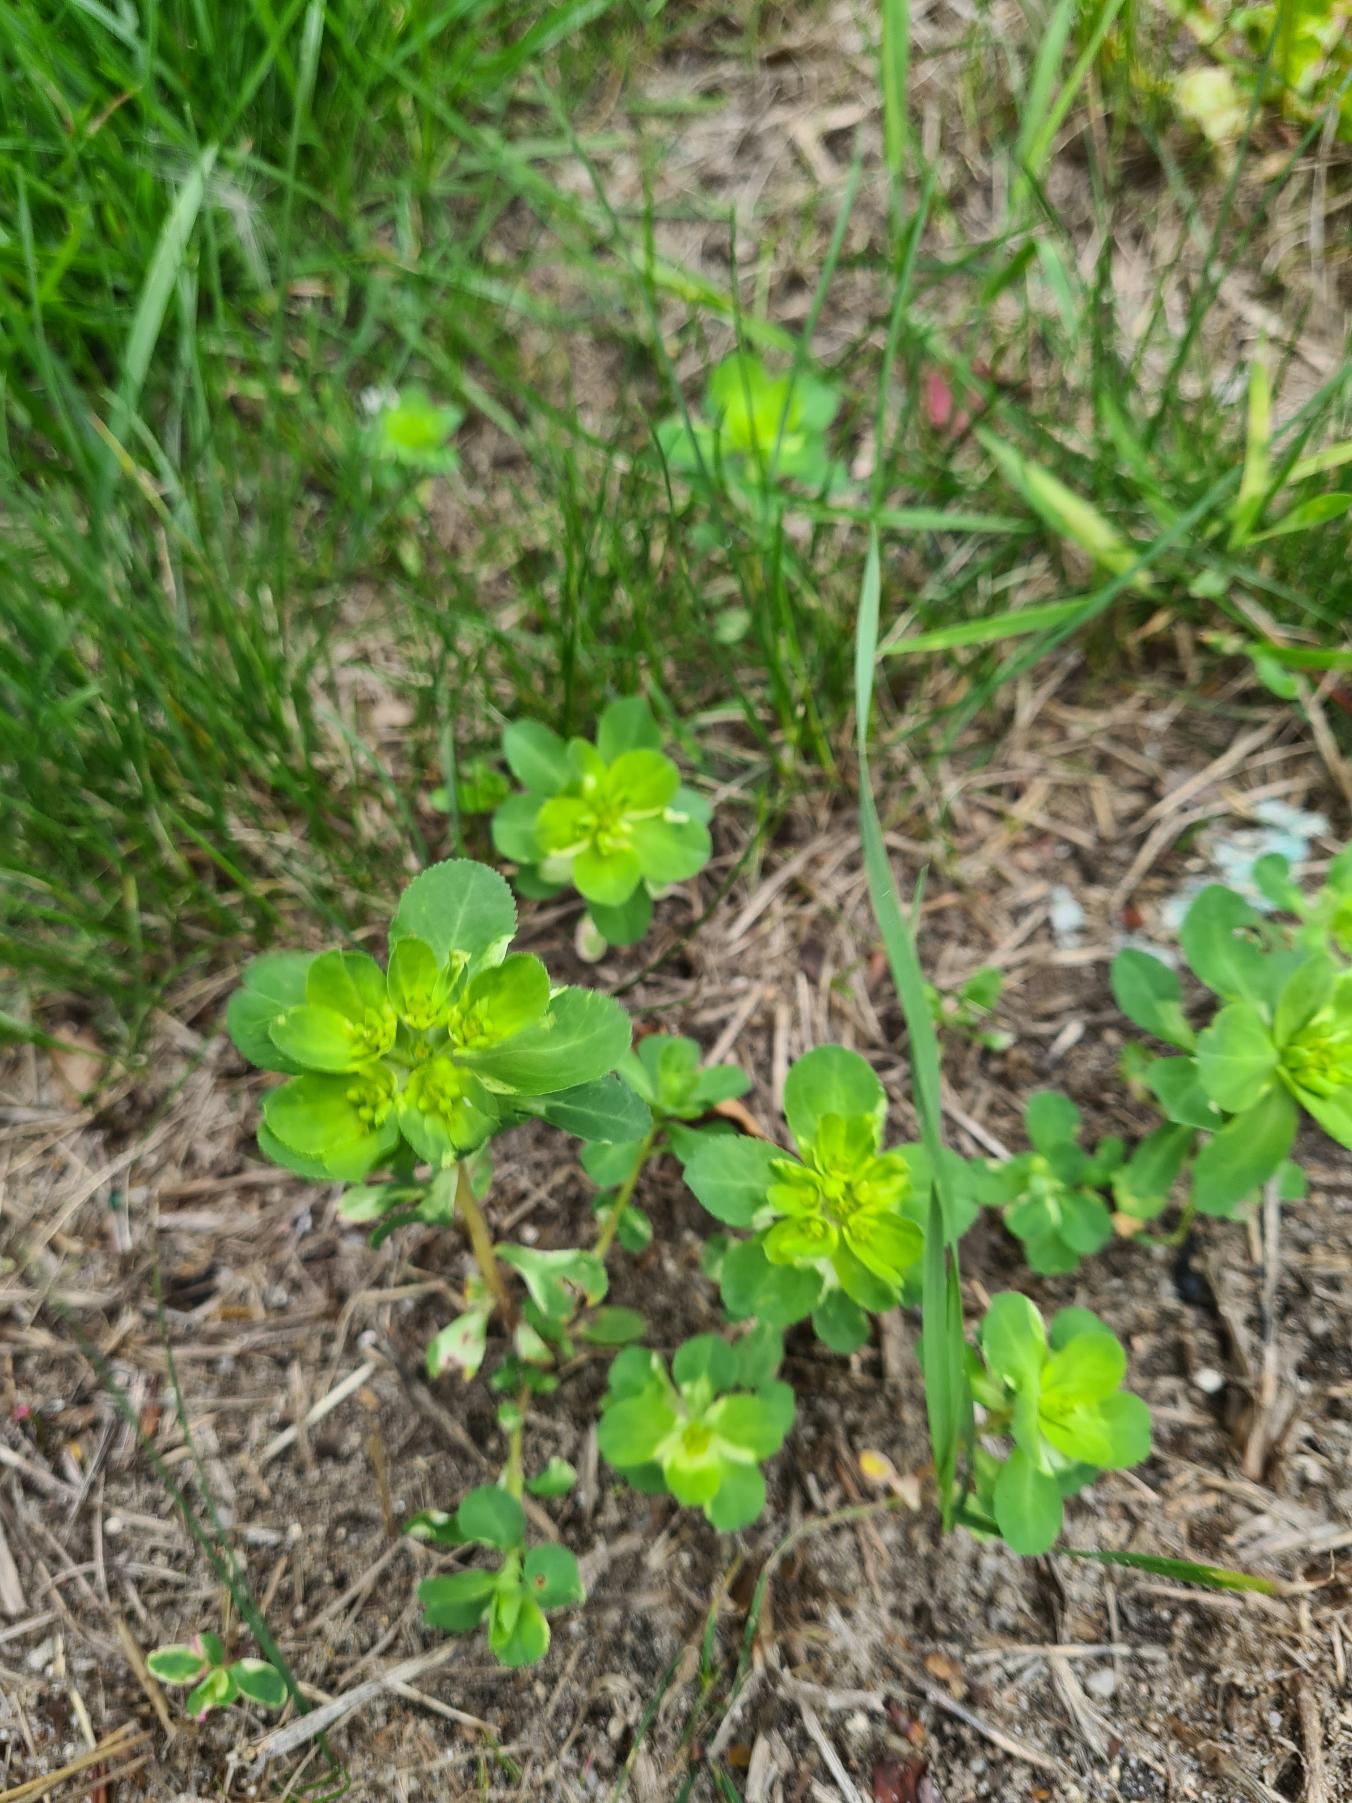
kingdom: Plantae
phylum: Tracheophyta
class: Magnoliopsida
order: Malpighiales
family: Euphorbiaceae
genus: Euphorbia
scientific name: Euphorbia helioscopia
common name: Skærm-vortemælk
